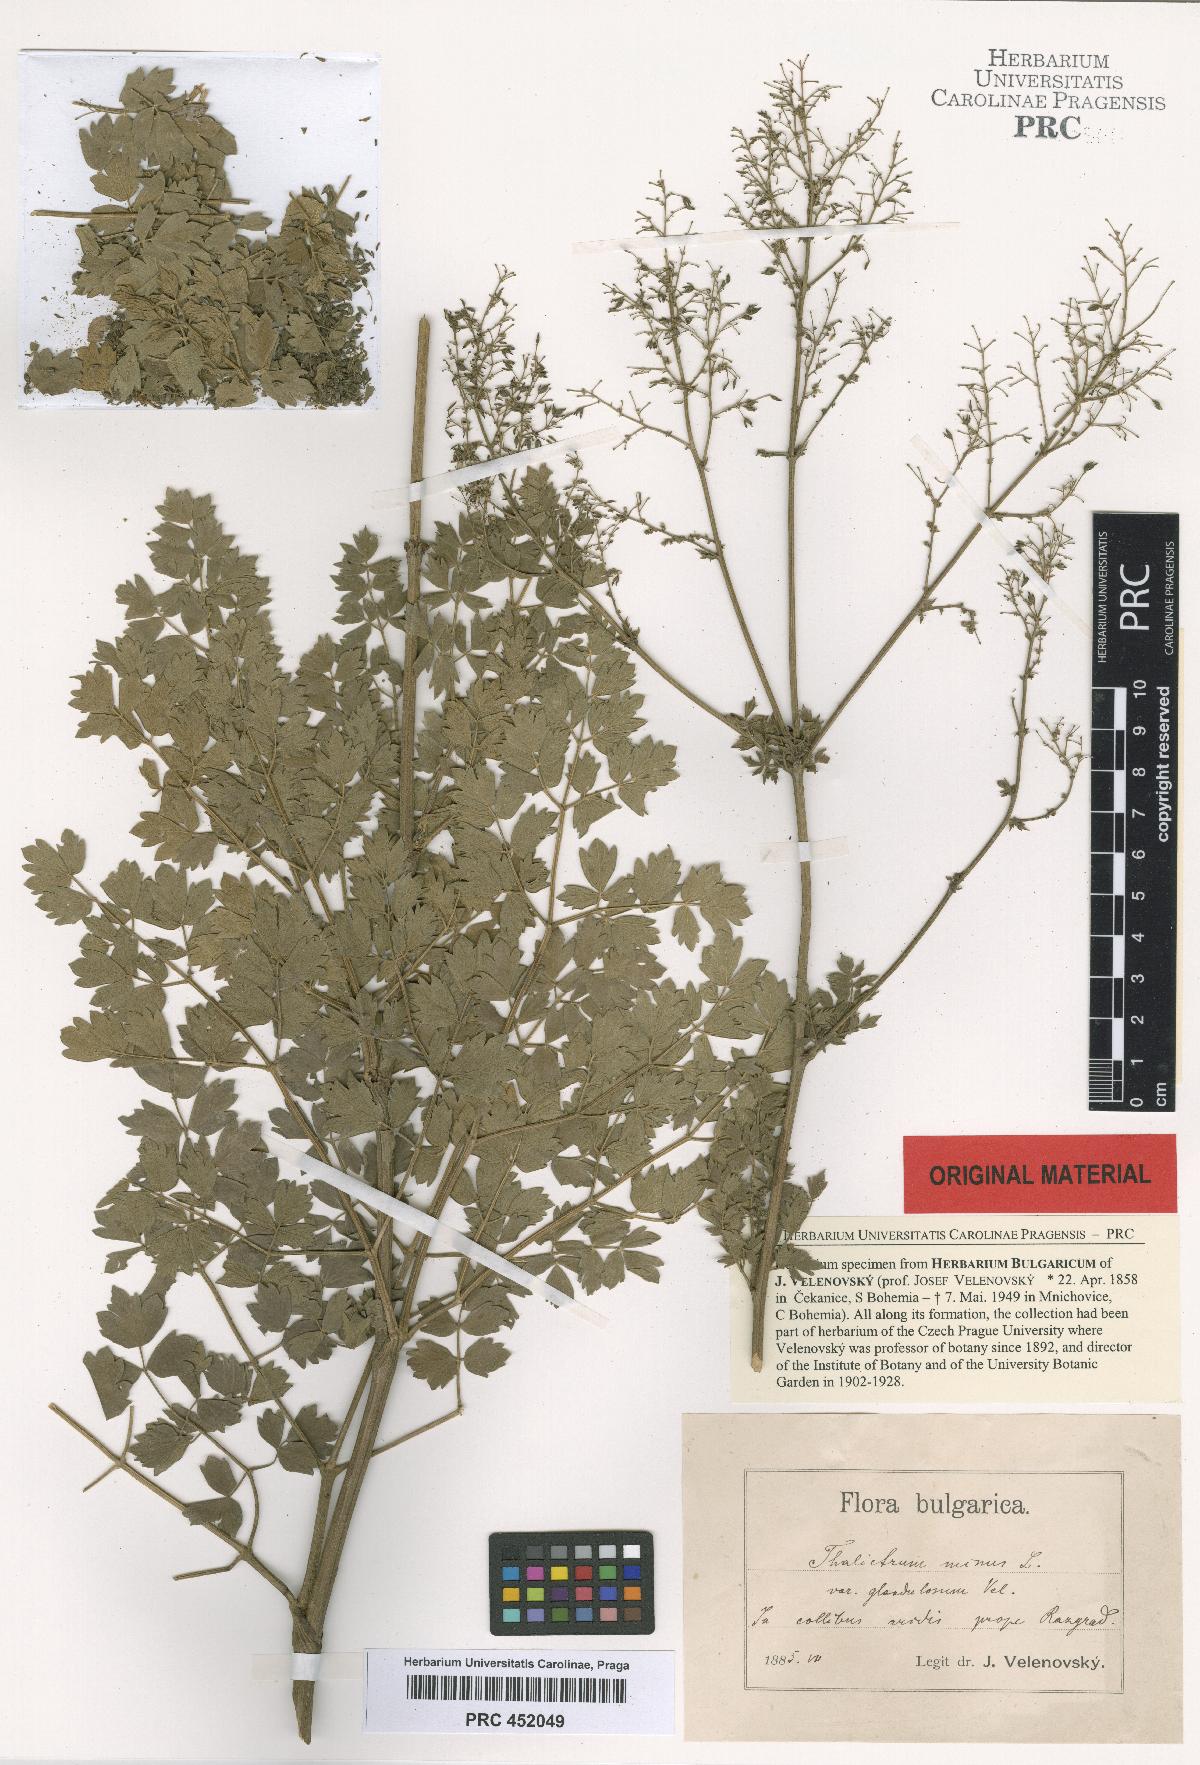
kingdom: Plantae
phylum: Tracheophyta
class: Magnoliopsida
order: Ranunculales
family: Ranunculaceae
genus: Thalictrum
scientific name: Thalictrum glandulosum
